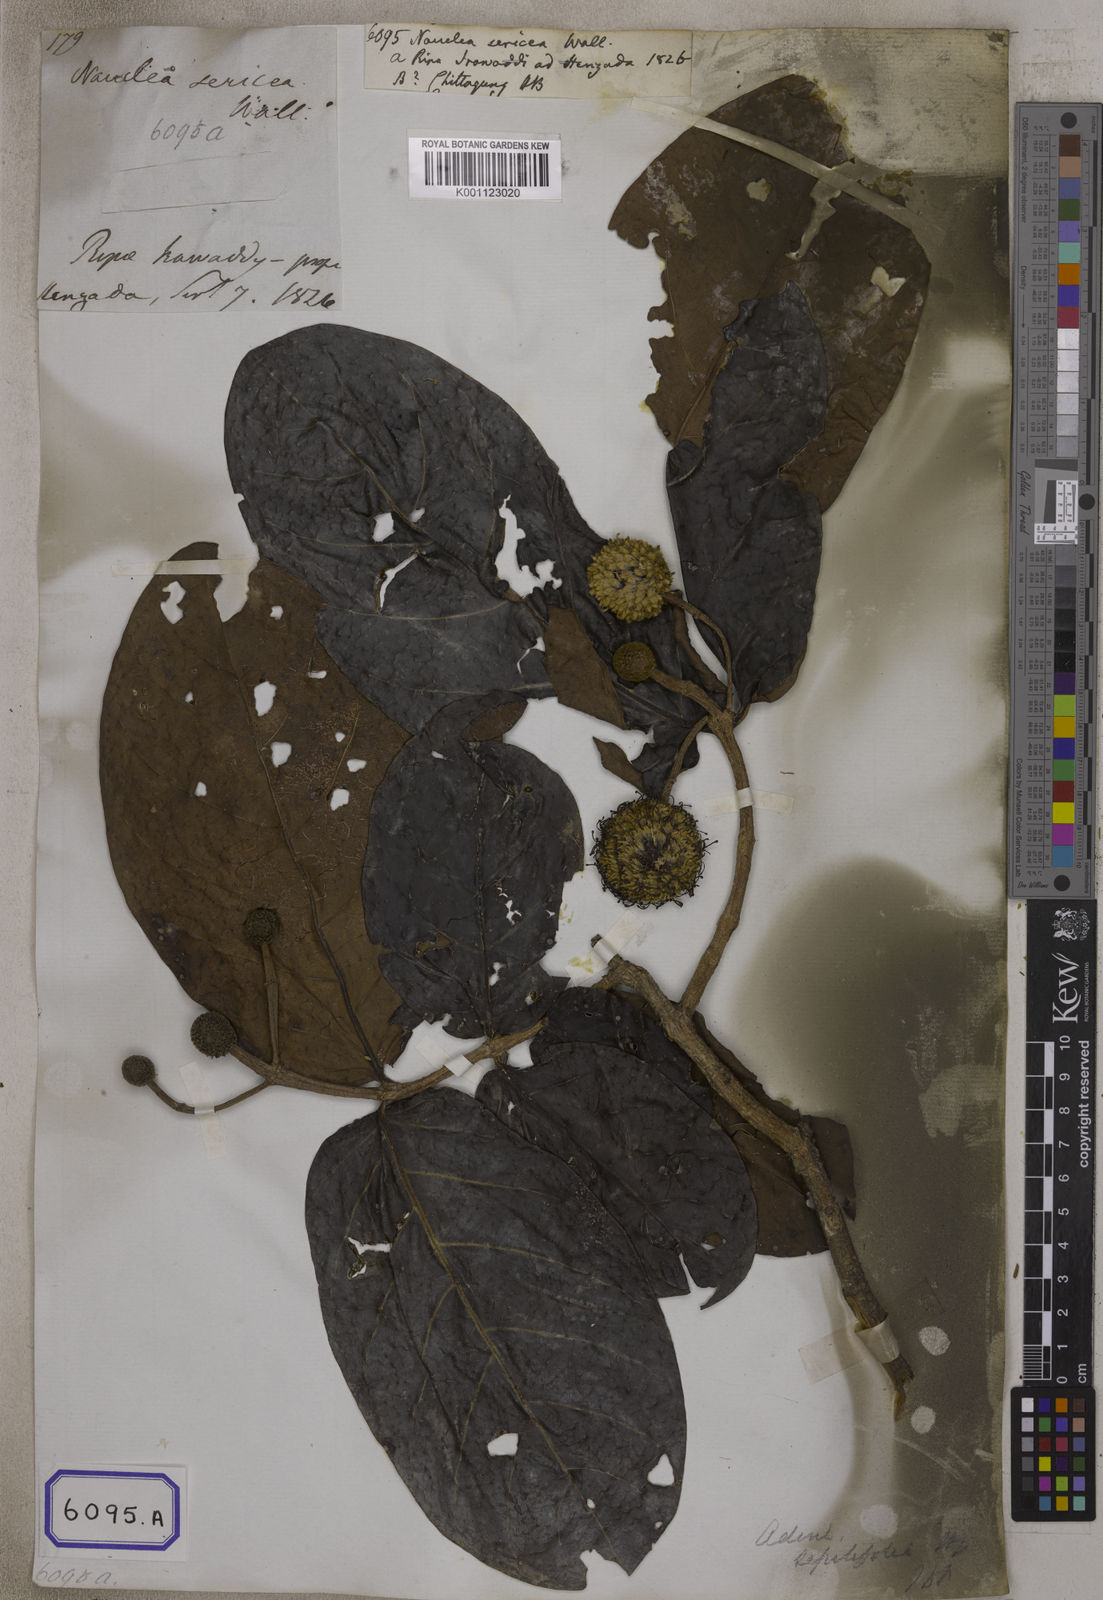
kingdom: Plantae
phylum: Tracheophyta
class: Magnoliopsida
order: Gentianales
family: Rubiaceae
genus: Nauclea
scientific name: Nauclea
